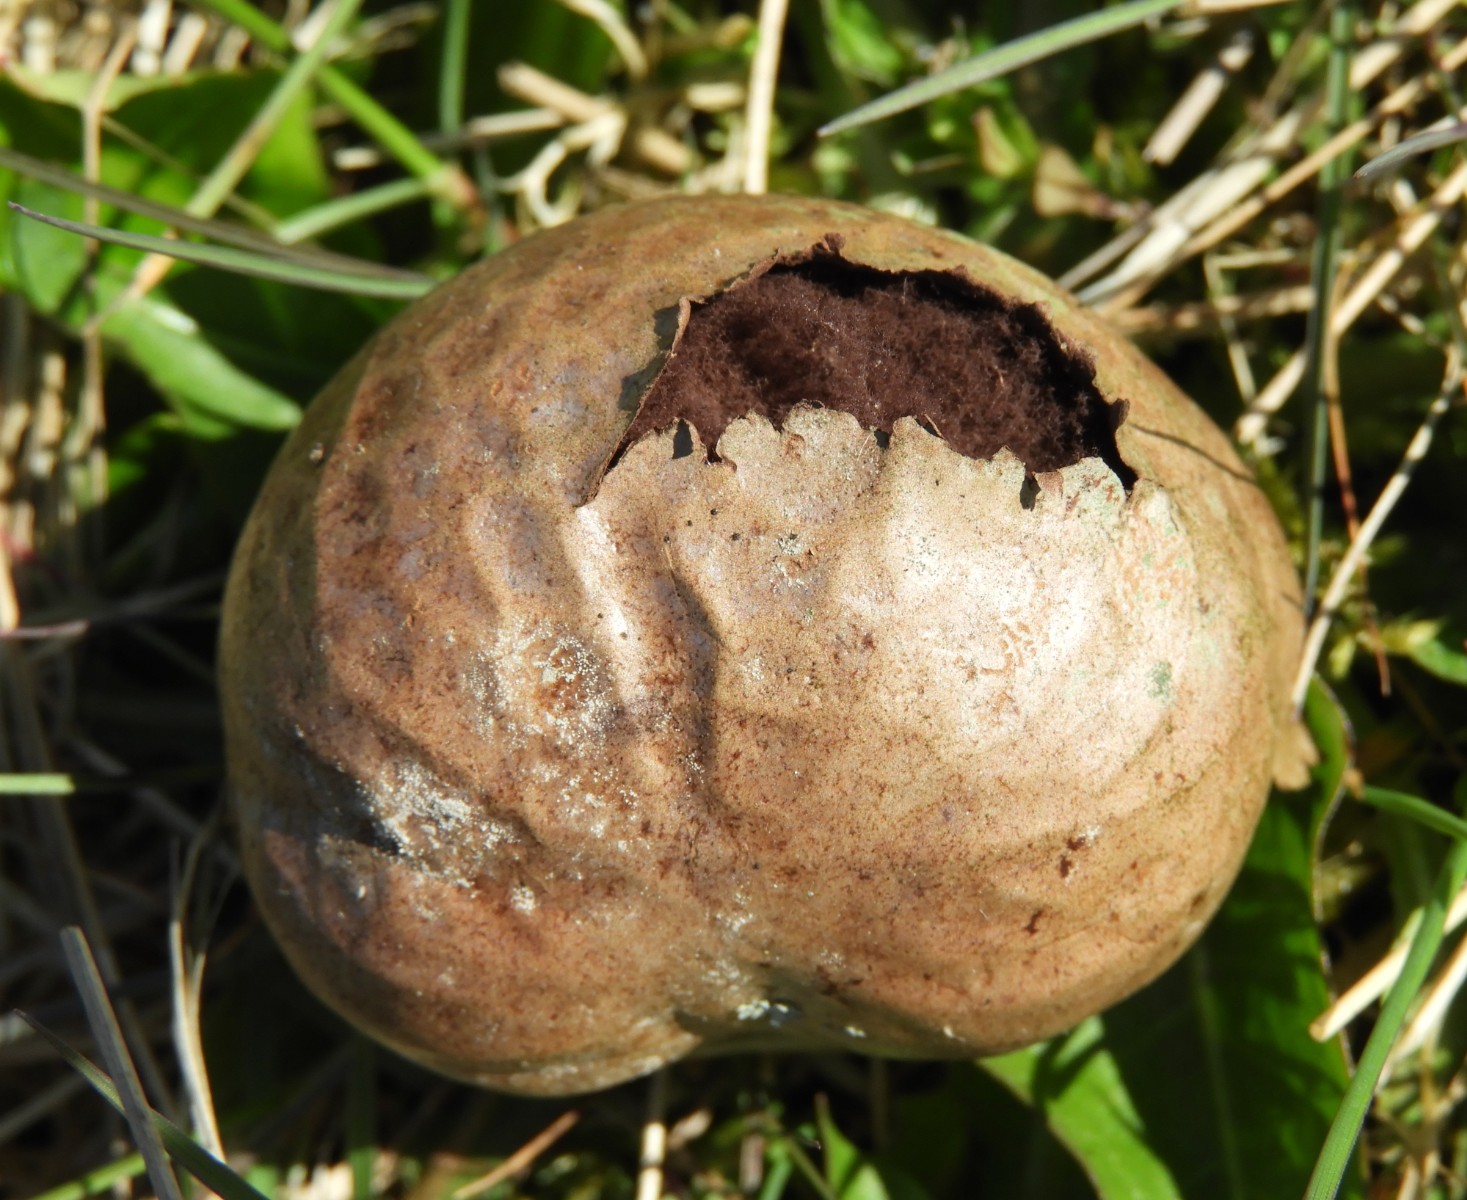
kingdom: Fungi
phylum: Basidiomycota
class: Agaricomycetes
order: Agaricales
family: Lycoperdaceae
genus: Bovista
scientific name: Bovista nigrescens
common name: sortagtig bovist
